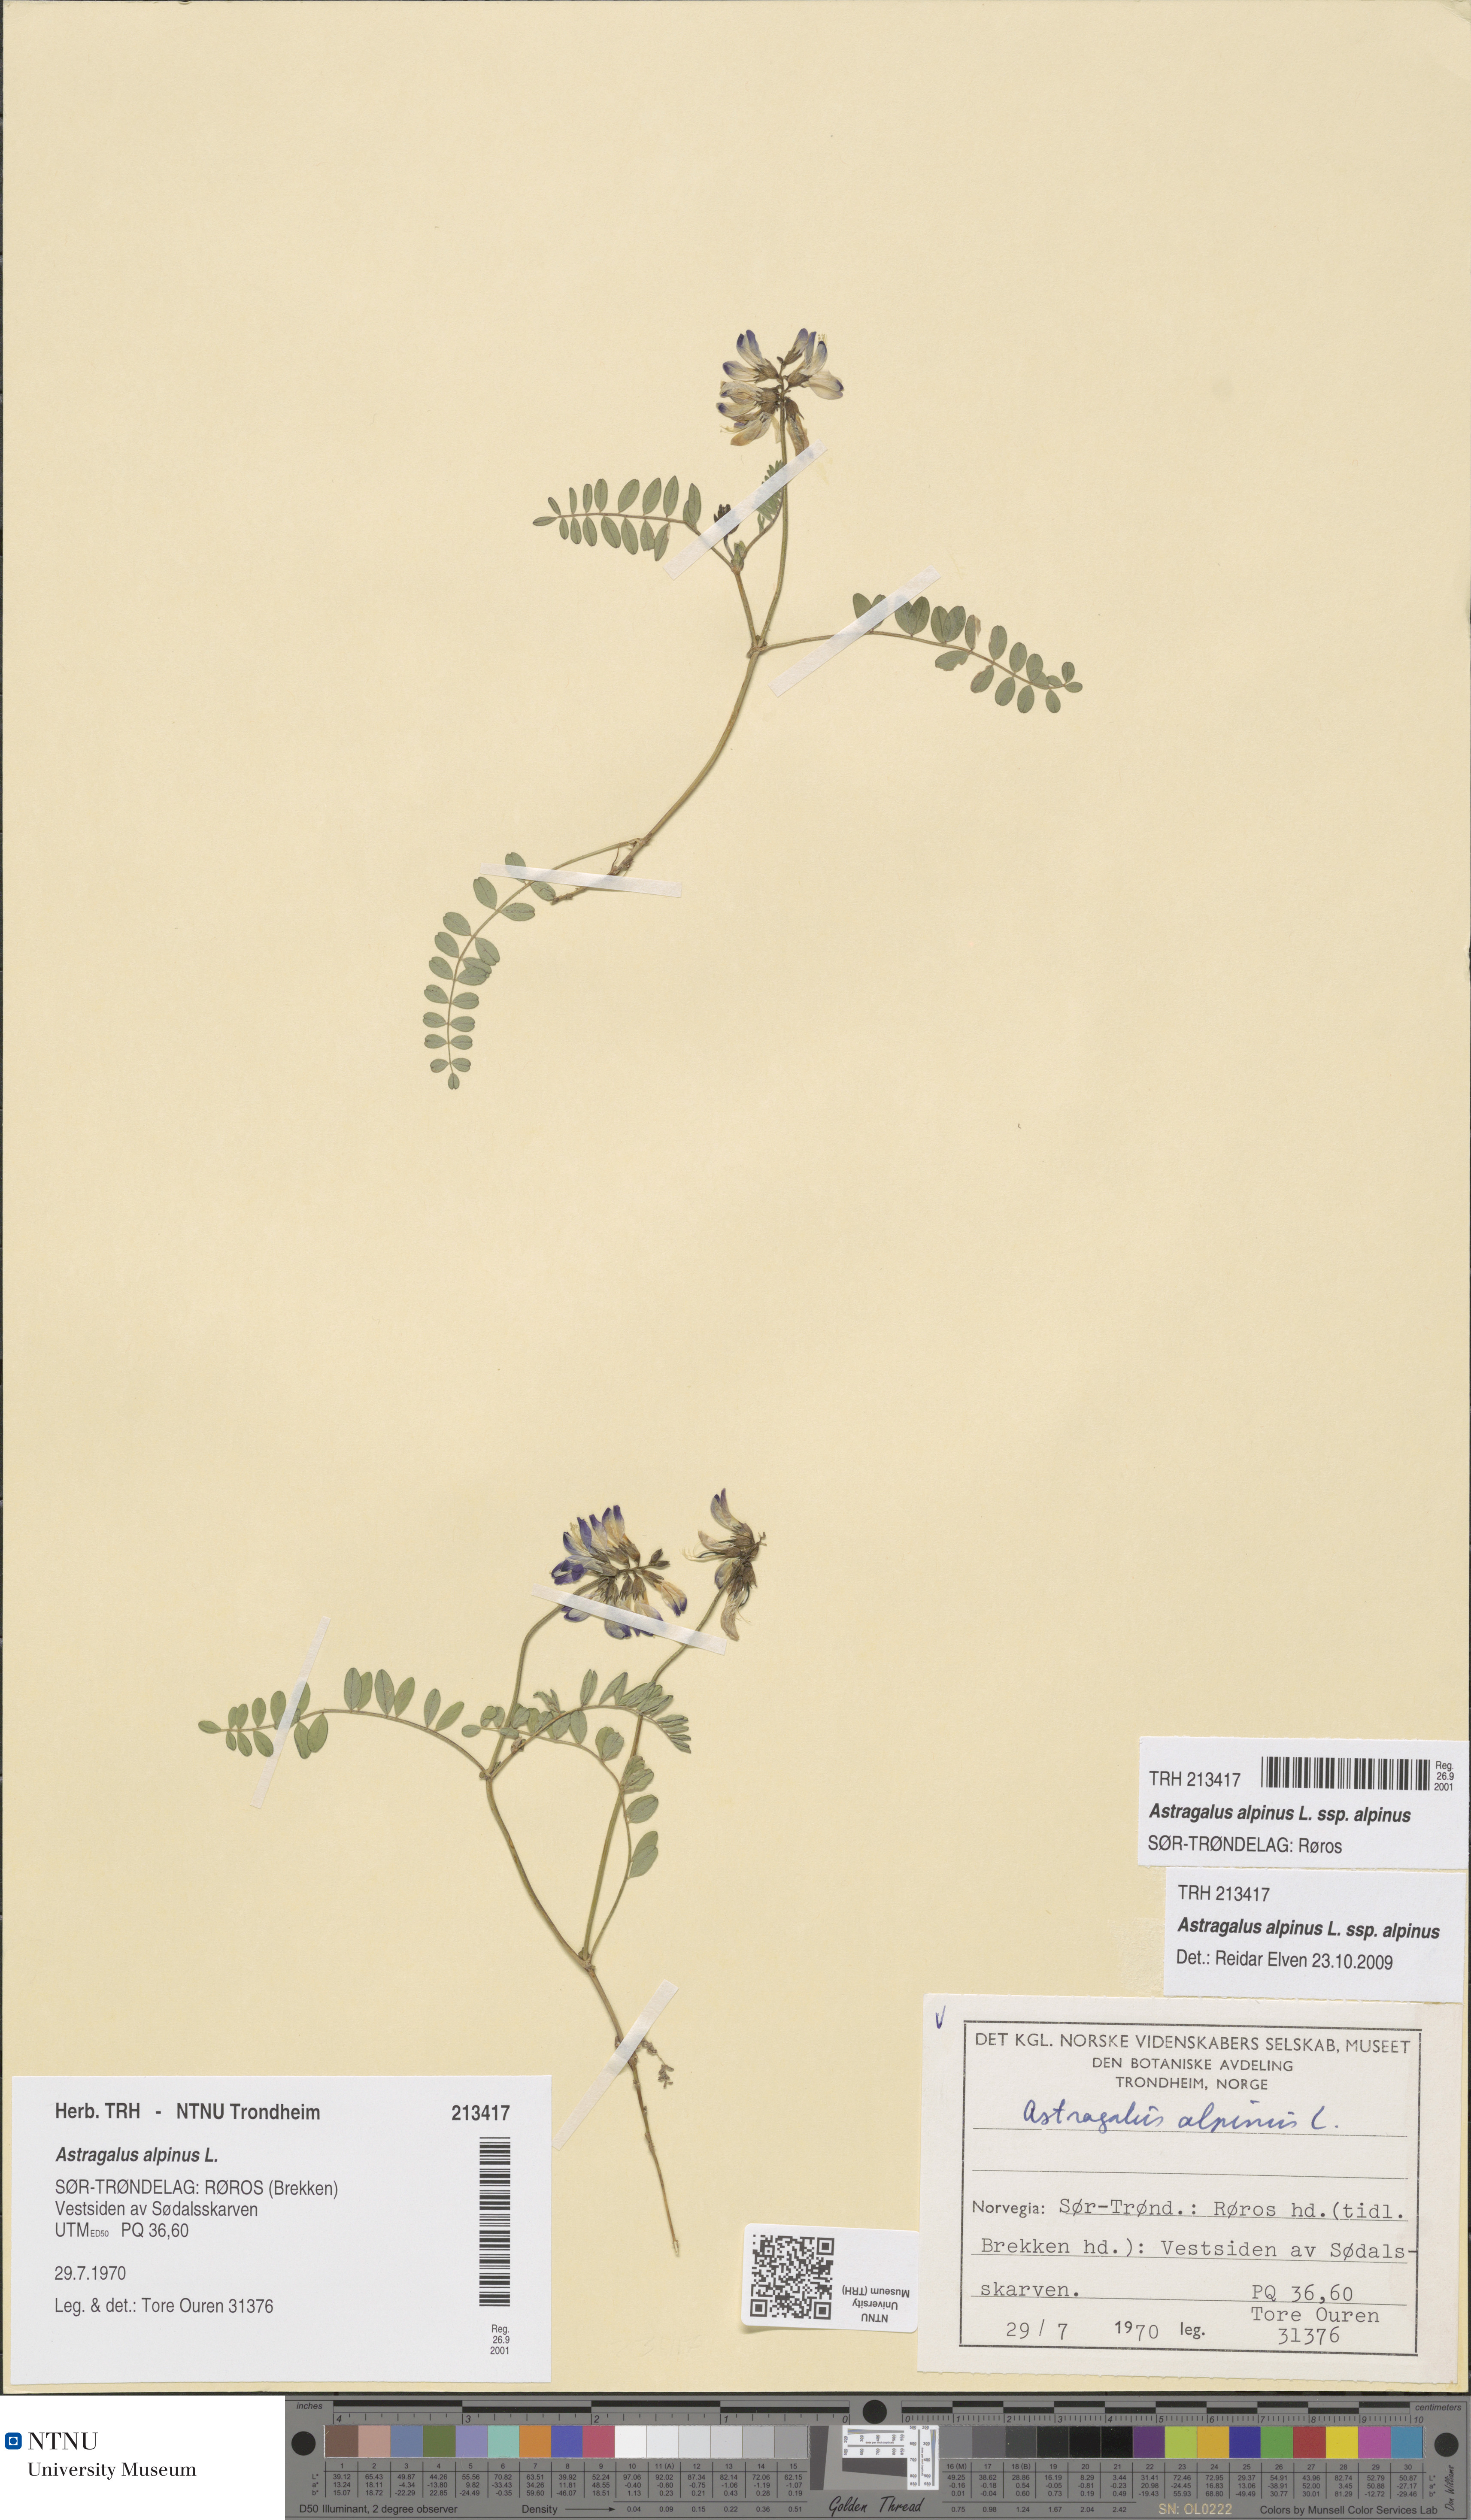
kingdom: Plantae
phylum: Tracheophyta
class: Magnoliopsida
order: Fabales
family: Fabaceae
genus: Astragalus
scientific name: Astragalus alpinus
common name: Alpine milk-vetch
